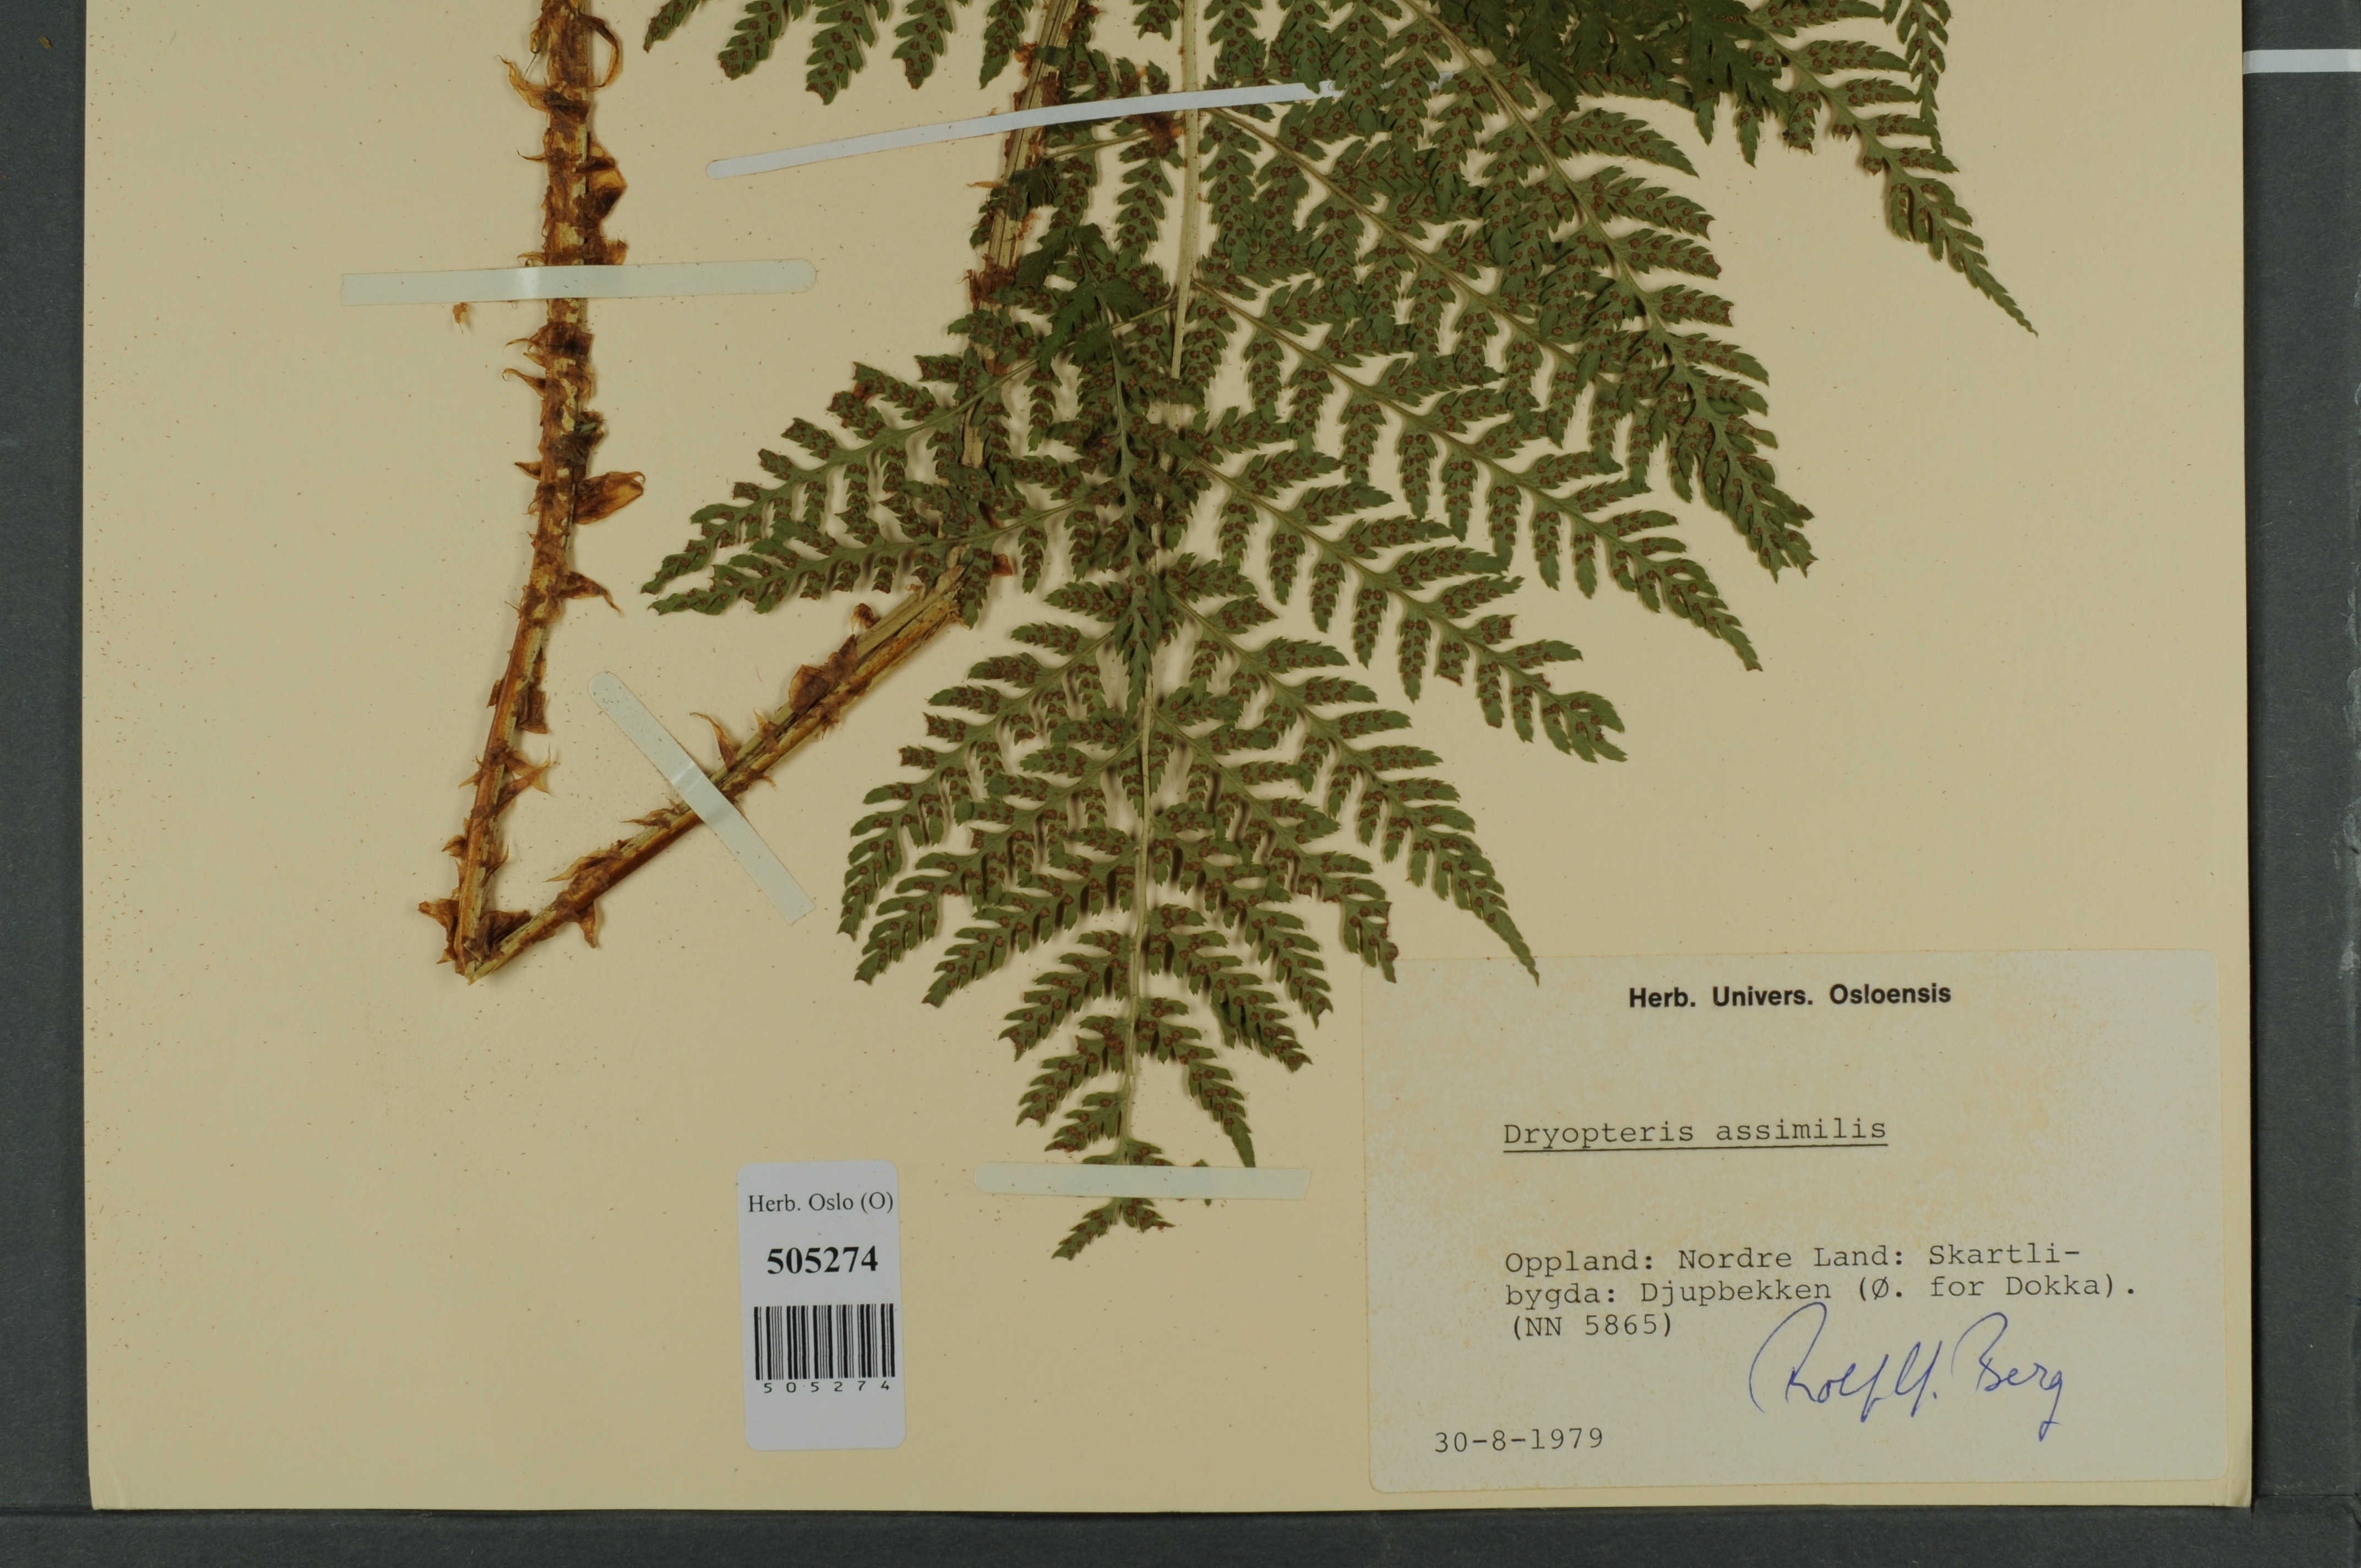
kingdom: Plantae
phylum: Tracheophyta
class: Polypodiopsida
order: Polypodiales
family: Dryopteridaceae
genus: Dryopteris
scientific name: Dryopteris expansa
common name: Northern buckler fern
